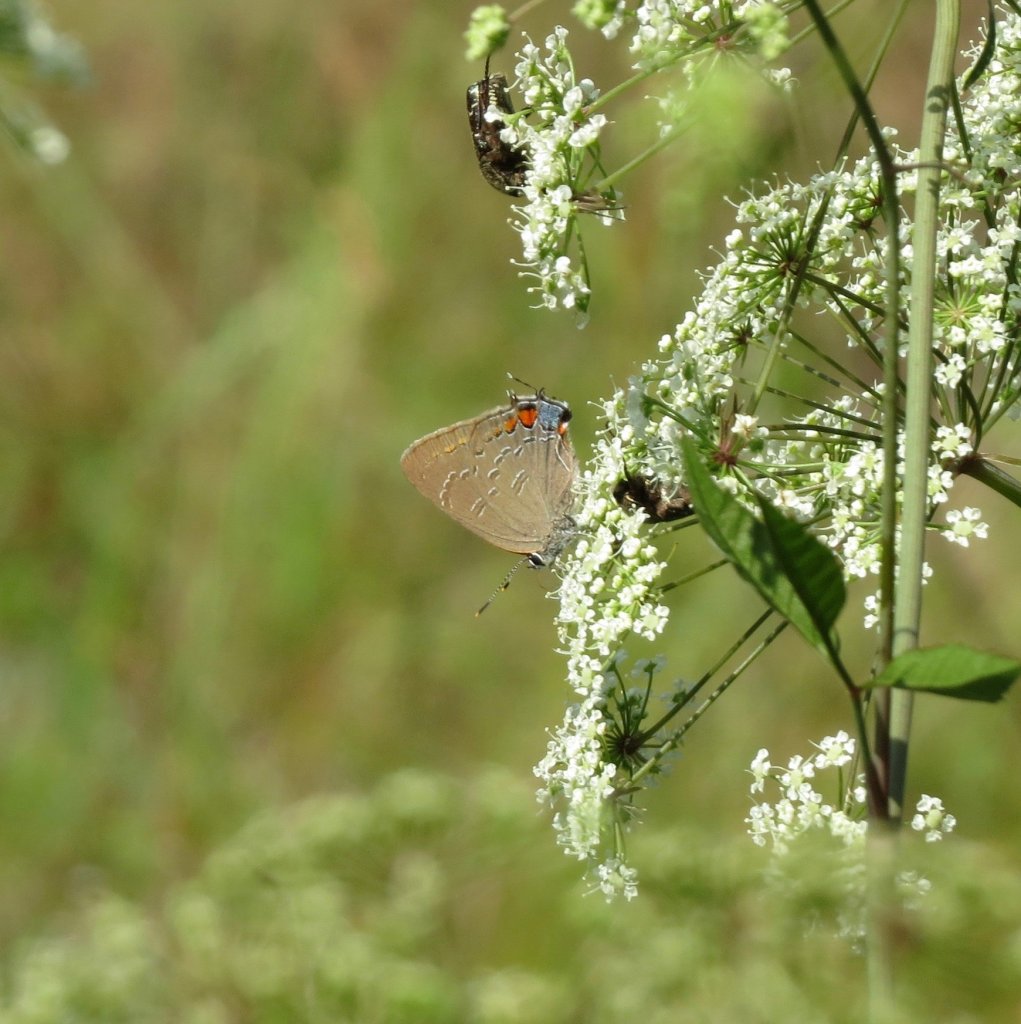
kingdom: Animalia
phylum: Arthropoda
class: Insecta
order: Lepidoptera
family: Lycaenidae
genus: Satyrium
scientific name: Satyrium calanus
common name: Banded Hairstreak
